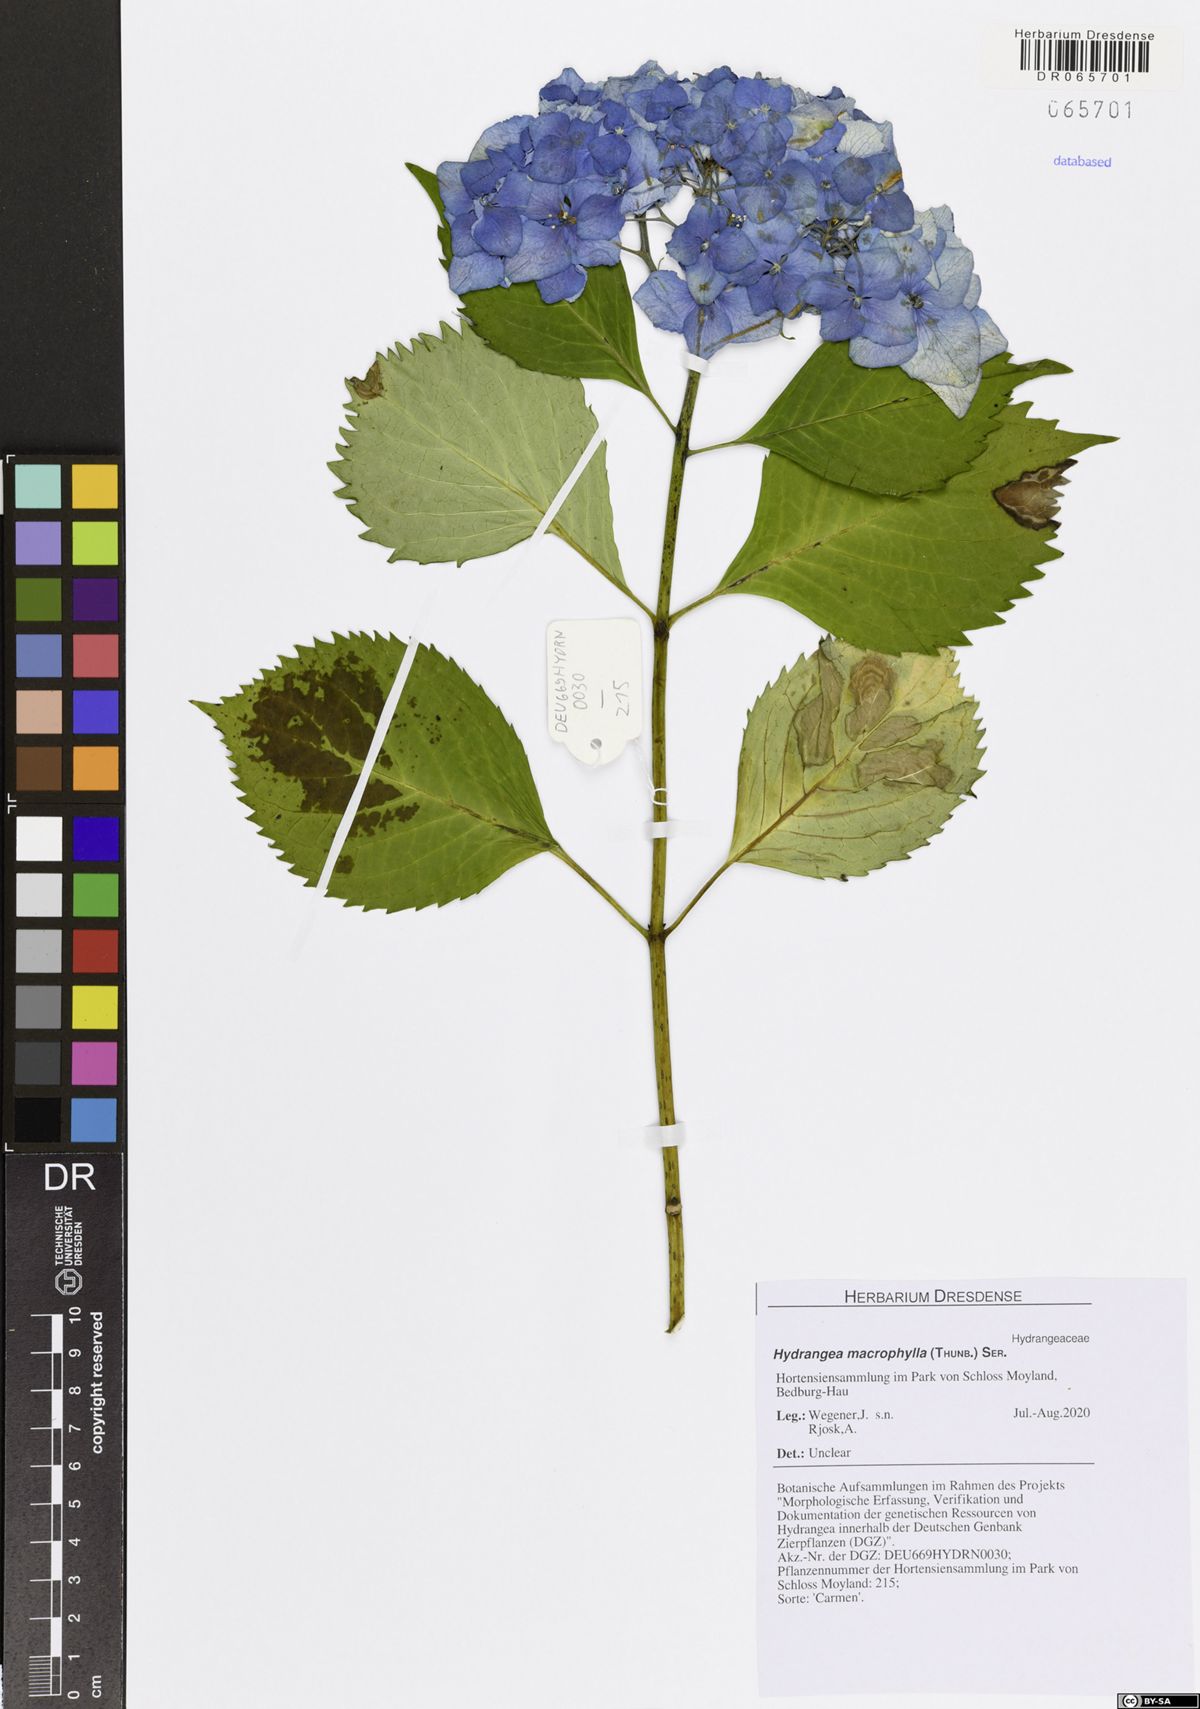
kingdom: Plantae
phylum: Tracheophyta
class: Magnoliopsida
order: Cornales
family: Hydrangeaceae
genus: Hydrangea
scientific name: Hydrangea macrophylla
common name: Hydrangea
